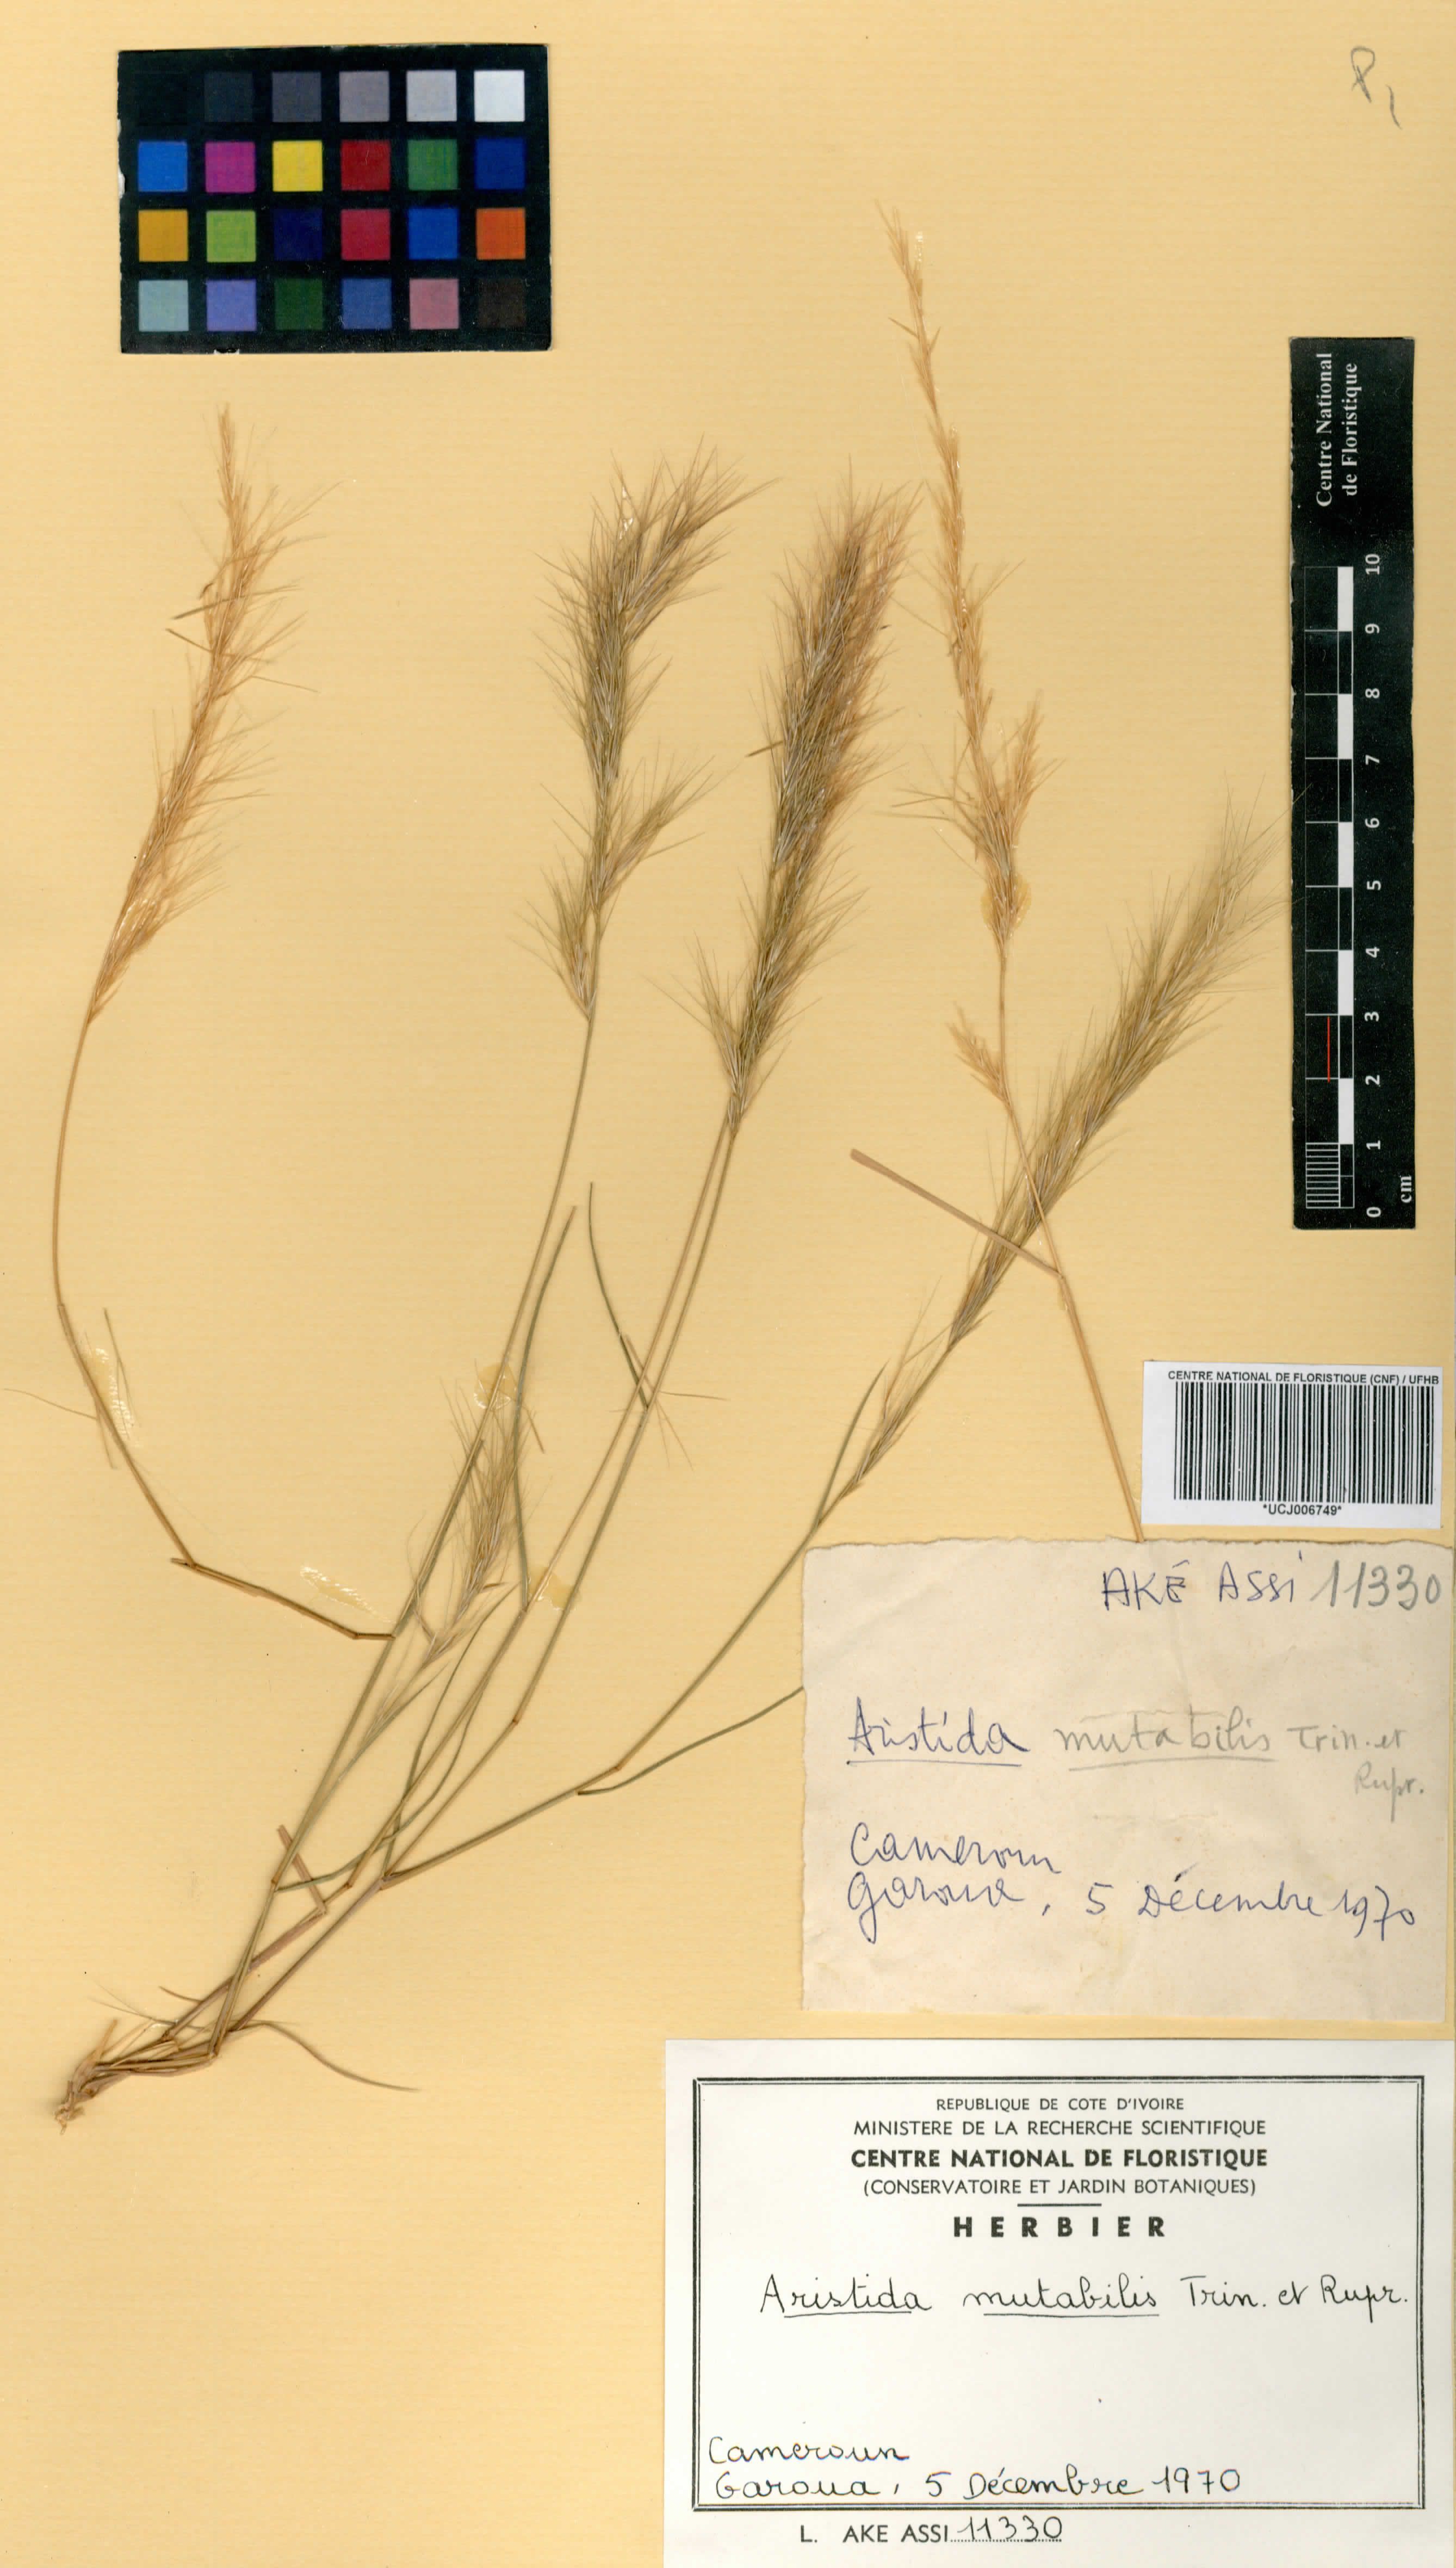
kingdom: Plantae
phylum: Tracheophyta
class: Liliopsida
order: Poales
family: Poaceae
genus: Aristida
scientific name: Aristida mutabilis
